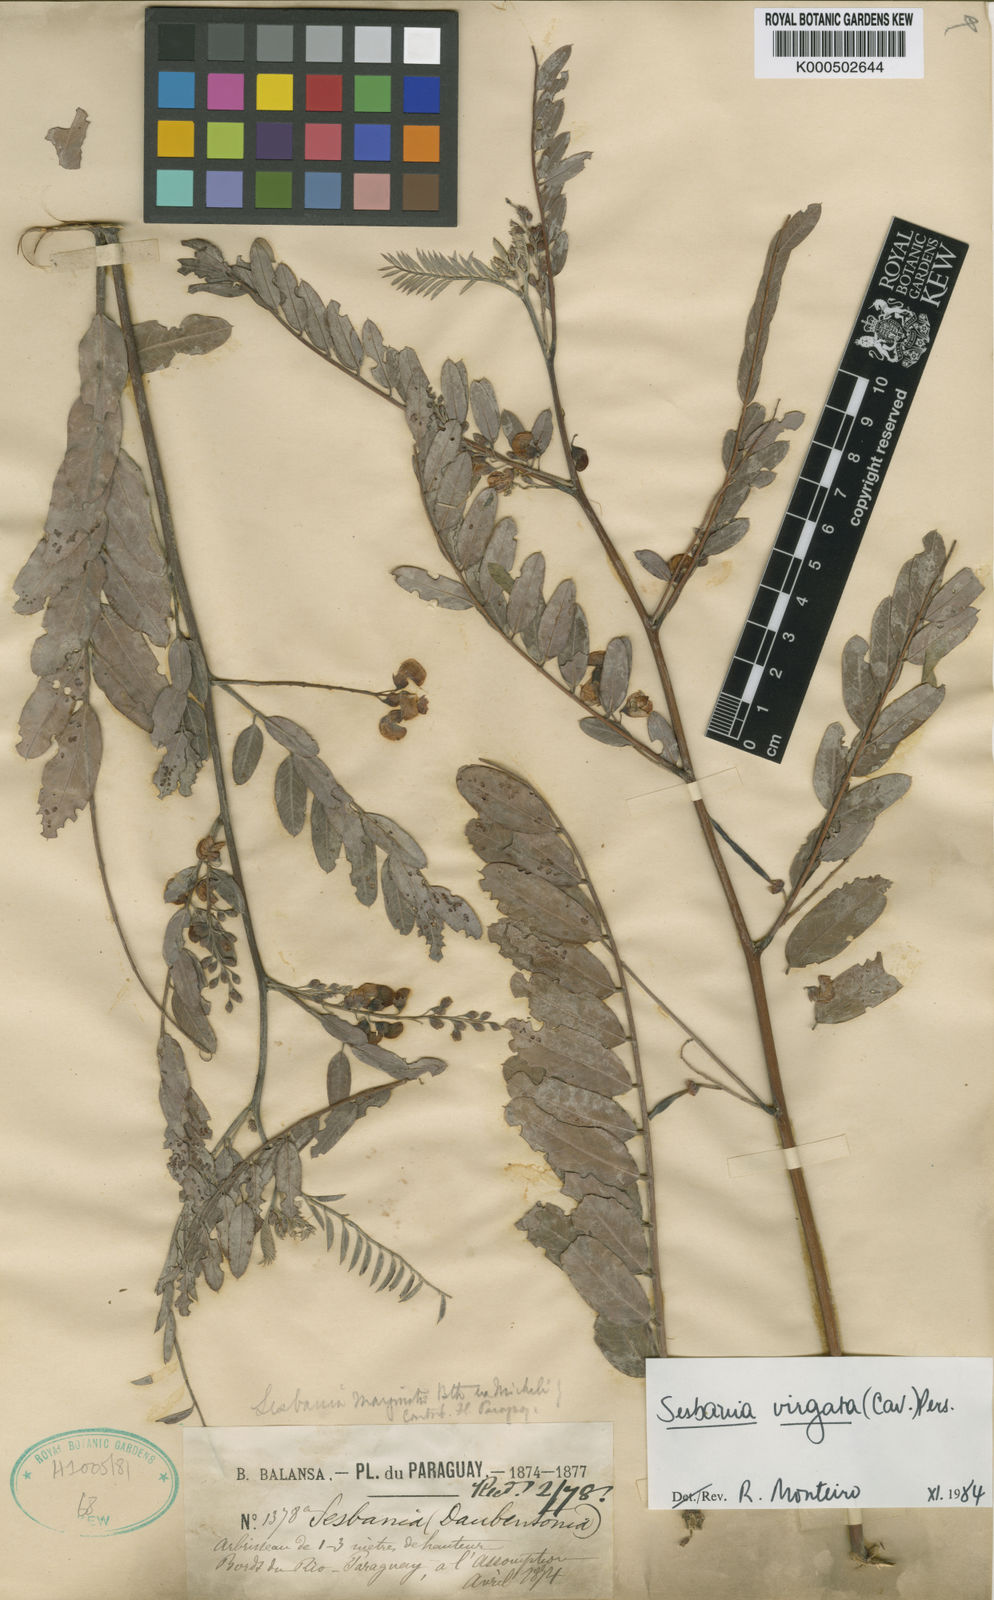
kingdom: Plantae
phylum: Tracheophyta
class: Magnoliopsida
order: Fabales
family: Fabaceae
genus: Sesbania
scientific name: Sesbania
